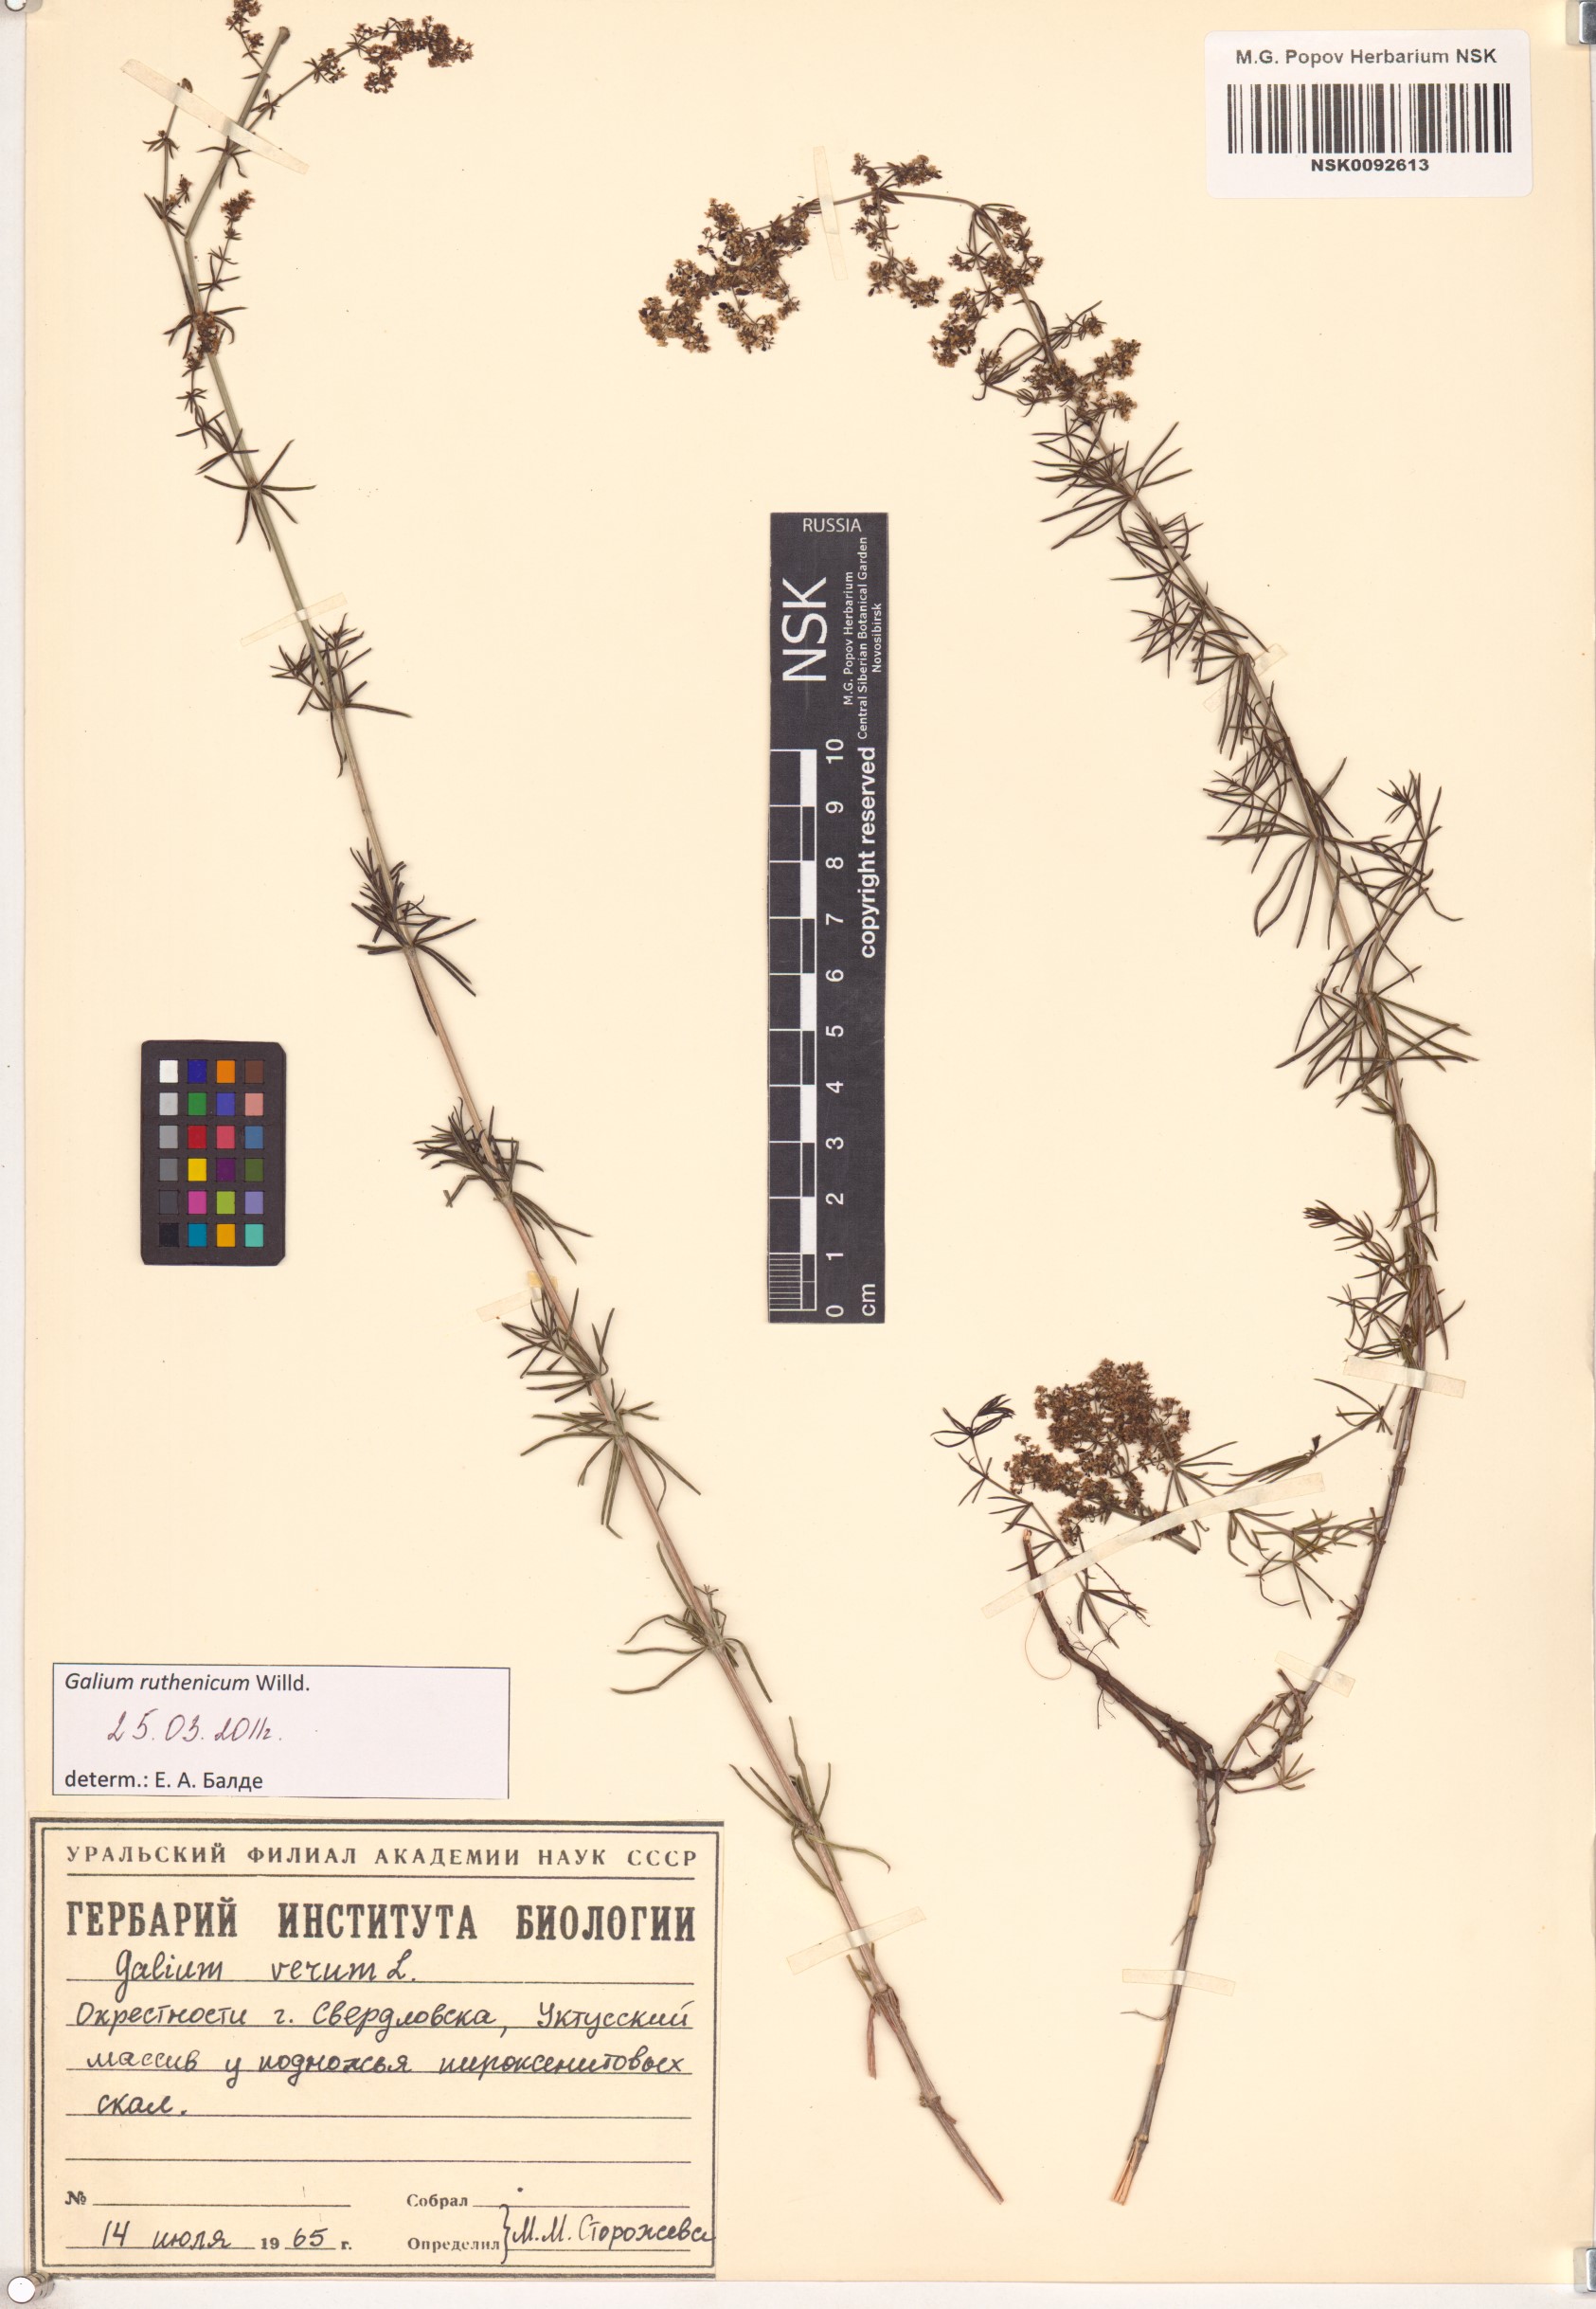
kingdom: Plantae
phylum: Tracheophyta
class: Magnoliopsida
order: Gentianales
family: Rubiaceae
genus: Galium
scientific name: Galium verum
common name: Lady's bedstraw
